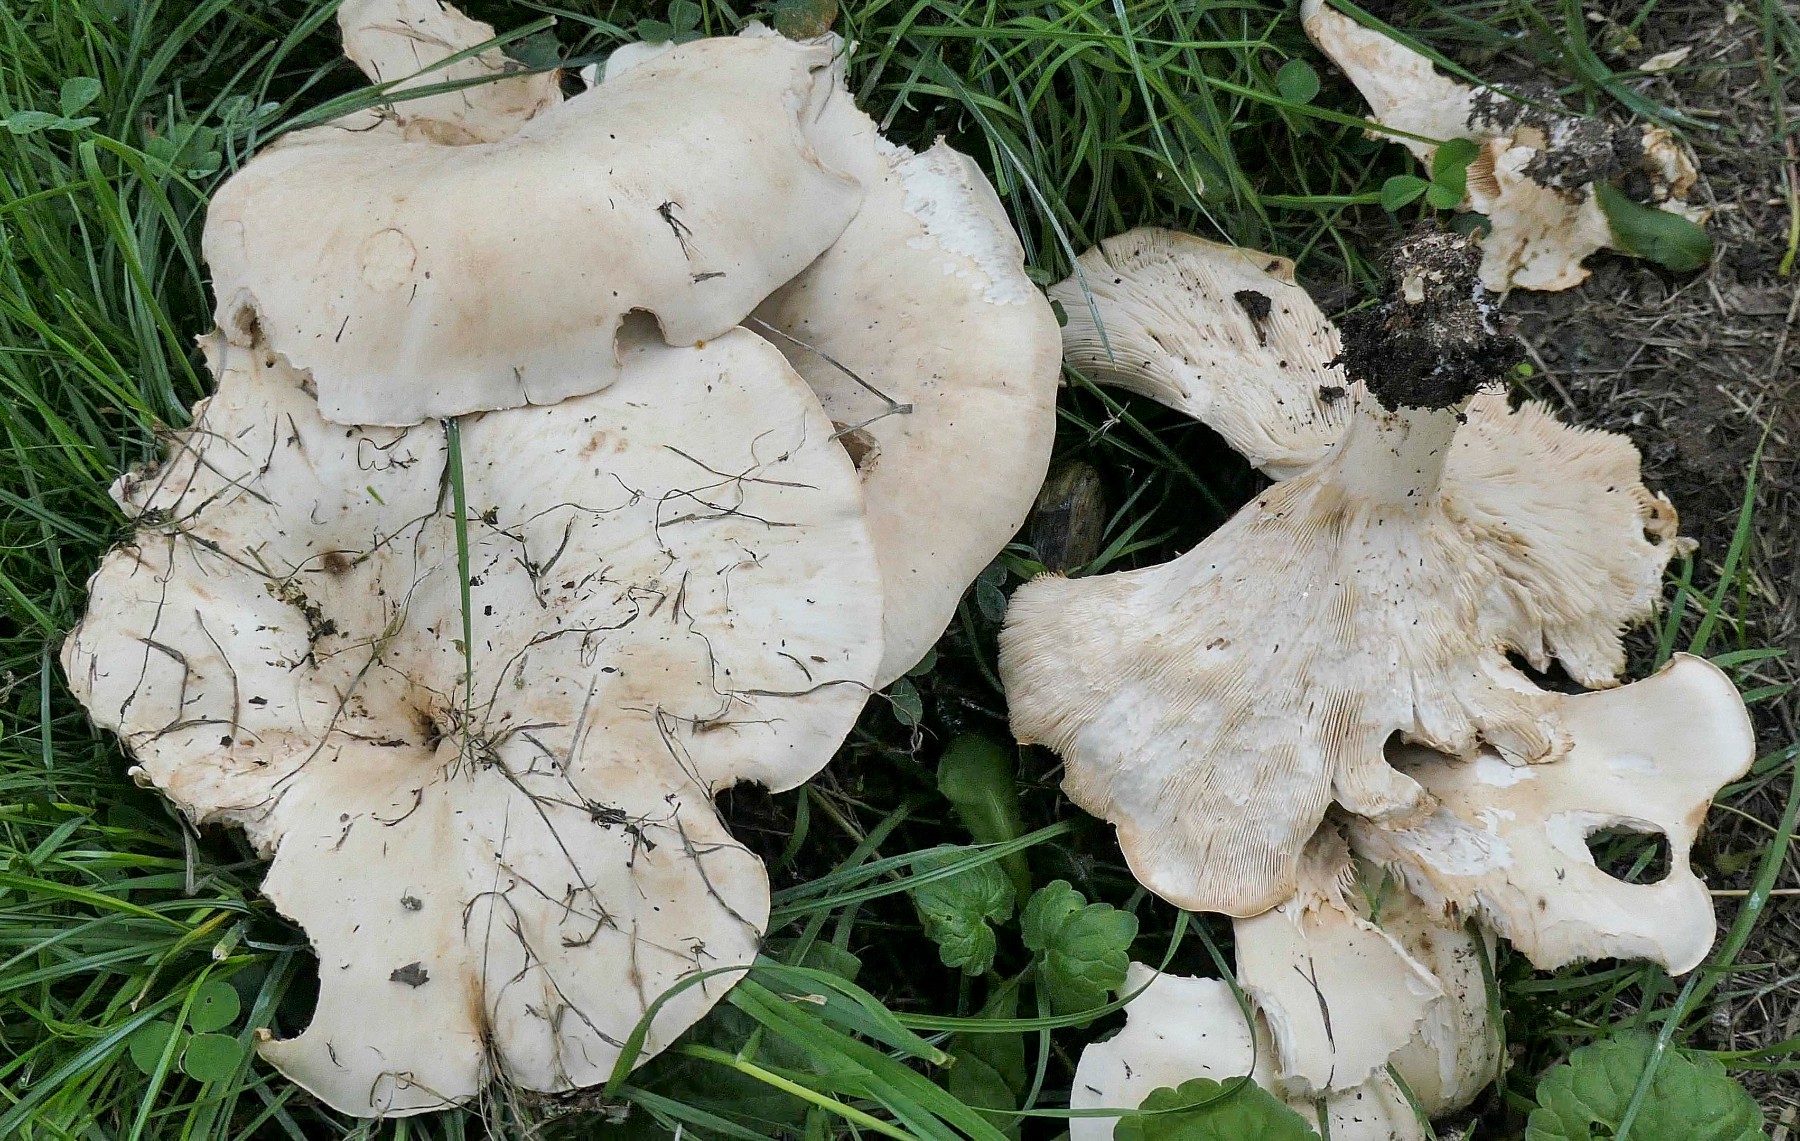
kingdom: Fungi
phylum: Basidiomycota
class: Agaricomycetes
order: Agaricales
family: Tricholomataceae
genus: Aspropaxillus
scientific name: Aspropaxillus giganteus
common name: kæmpe-tragtridderhat
